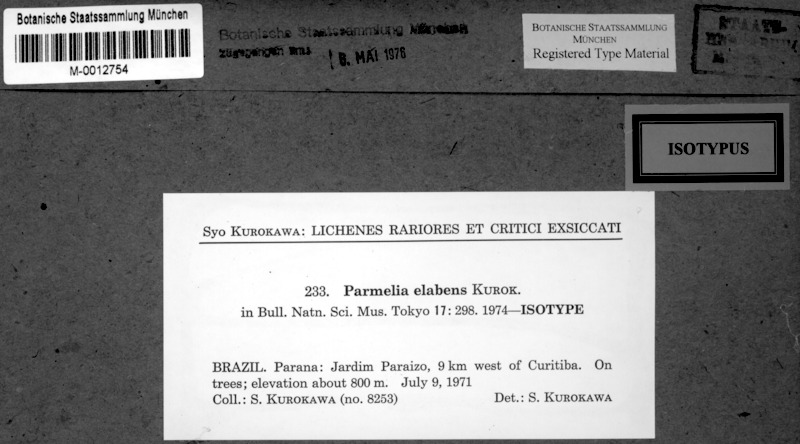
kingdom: Fungi
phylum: Ascomycota
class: Lecanoromycetes
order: Lecanorales
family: Parmeliaceae
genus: Parmotrema
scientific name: Parmotrema flavomedullosum
